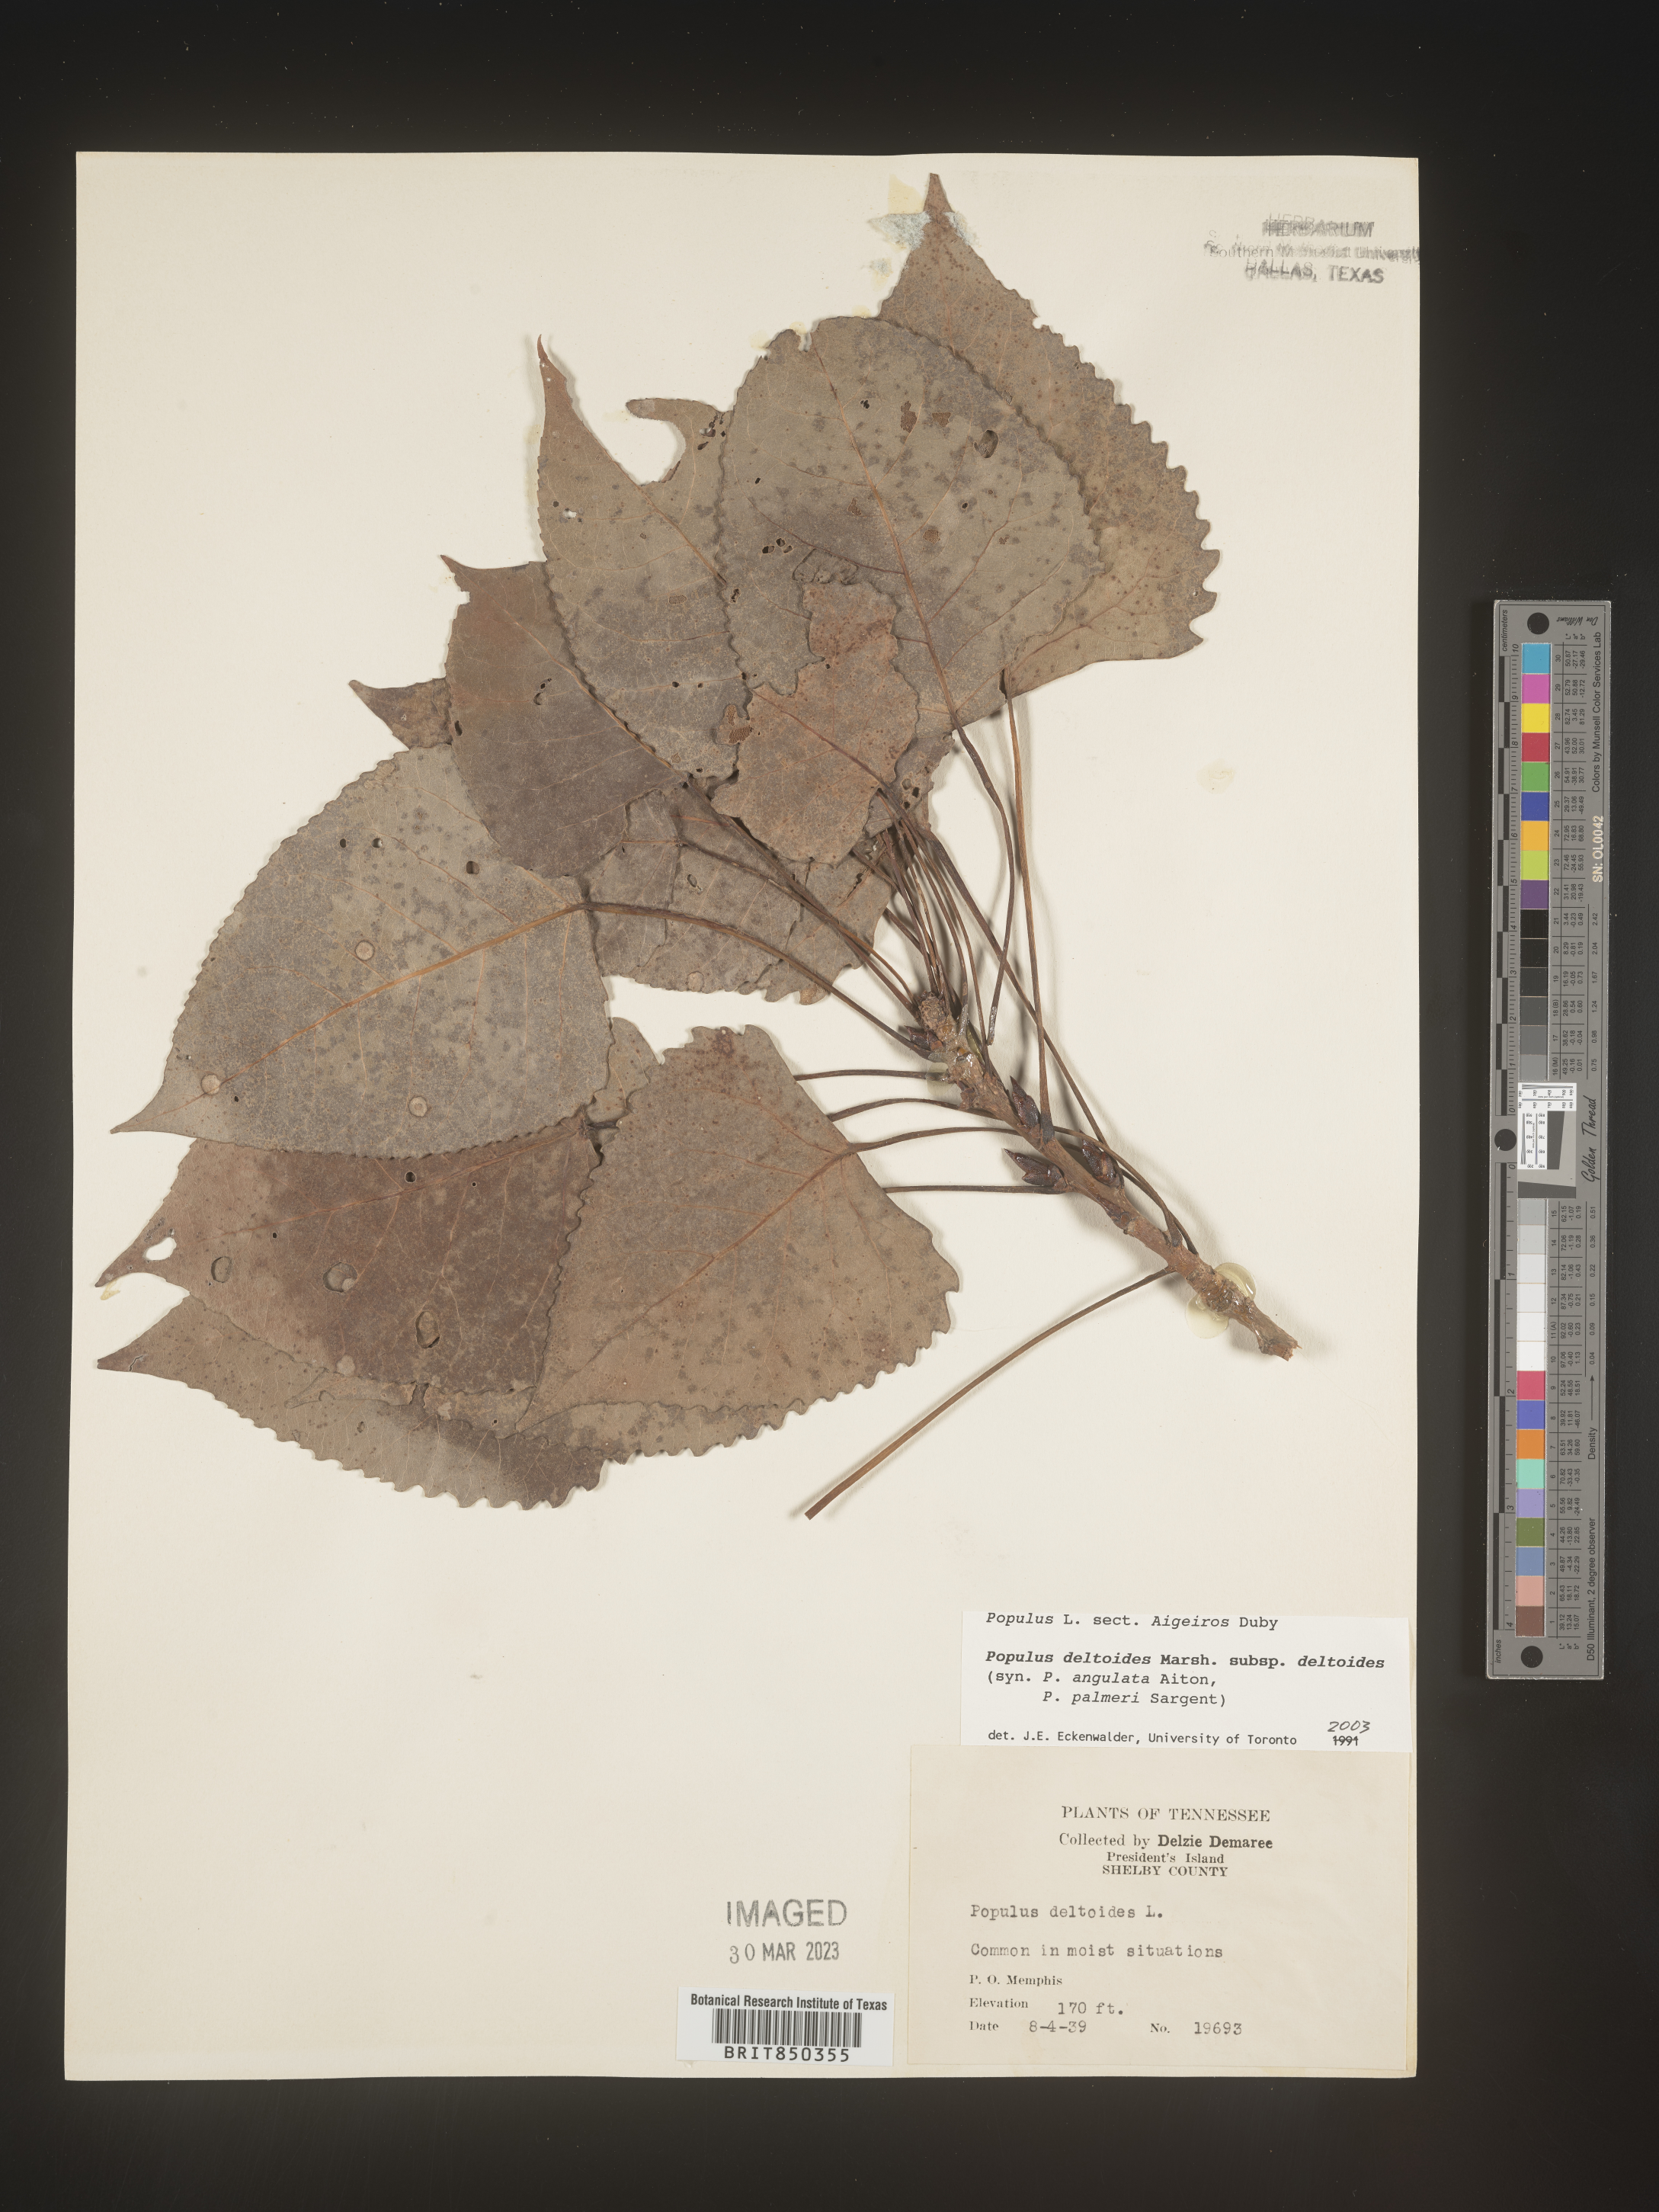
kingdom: Plantae
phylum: Tracheophyta
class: Magnoliopsida
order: Malpighiales
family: Salicaceae
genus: Populus
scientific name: Populus deltoides
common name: Eastern cottonwood
